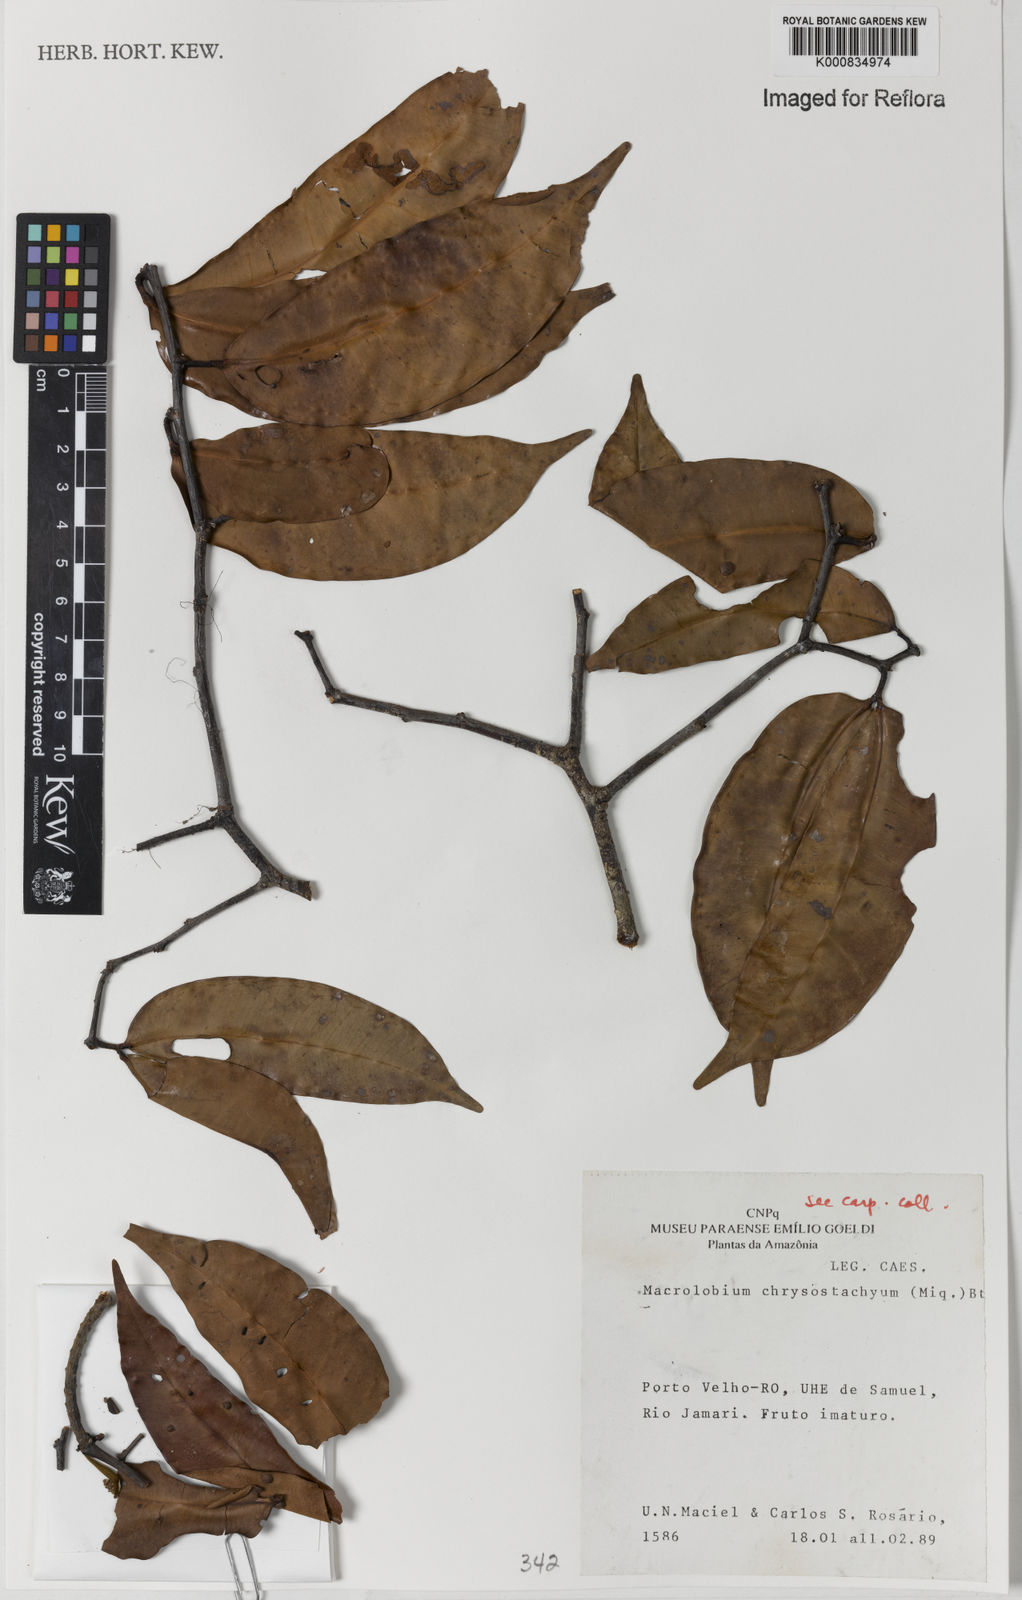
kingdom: Plantae
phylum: Tracheophyta
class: Magnoliopsida
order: Fabales
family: Fabaceae
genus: Macrolobium
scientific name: Macrolobium angustifolium
